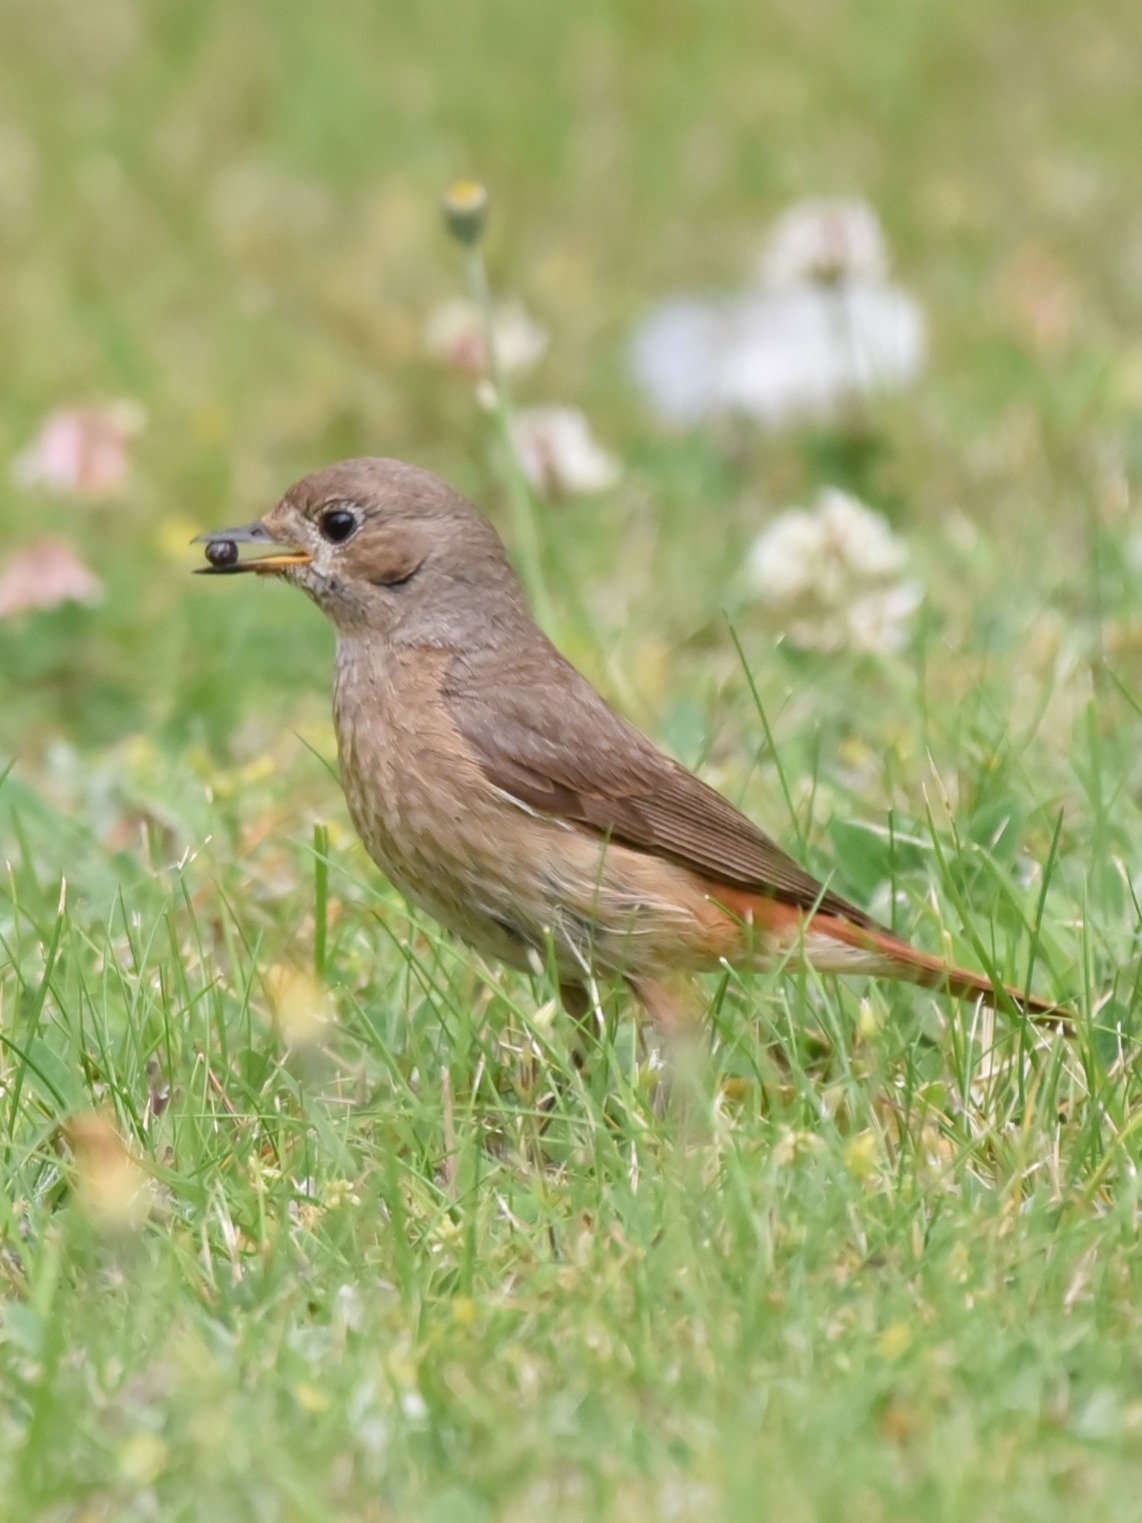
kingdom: Animalia
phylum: Chordata
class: Aves
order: Passeriformes
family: Muscicapidae
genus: Phoenicurus
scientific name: Phoenicurus phoenicurus
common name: Rødstjert
